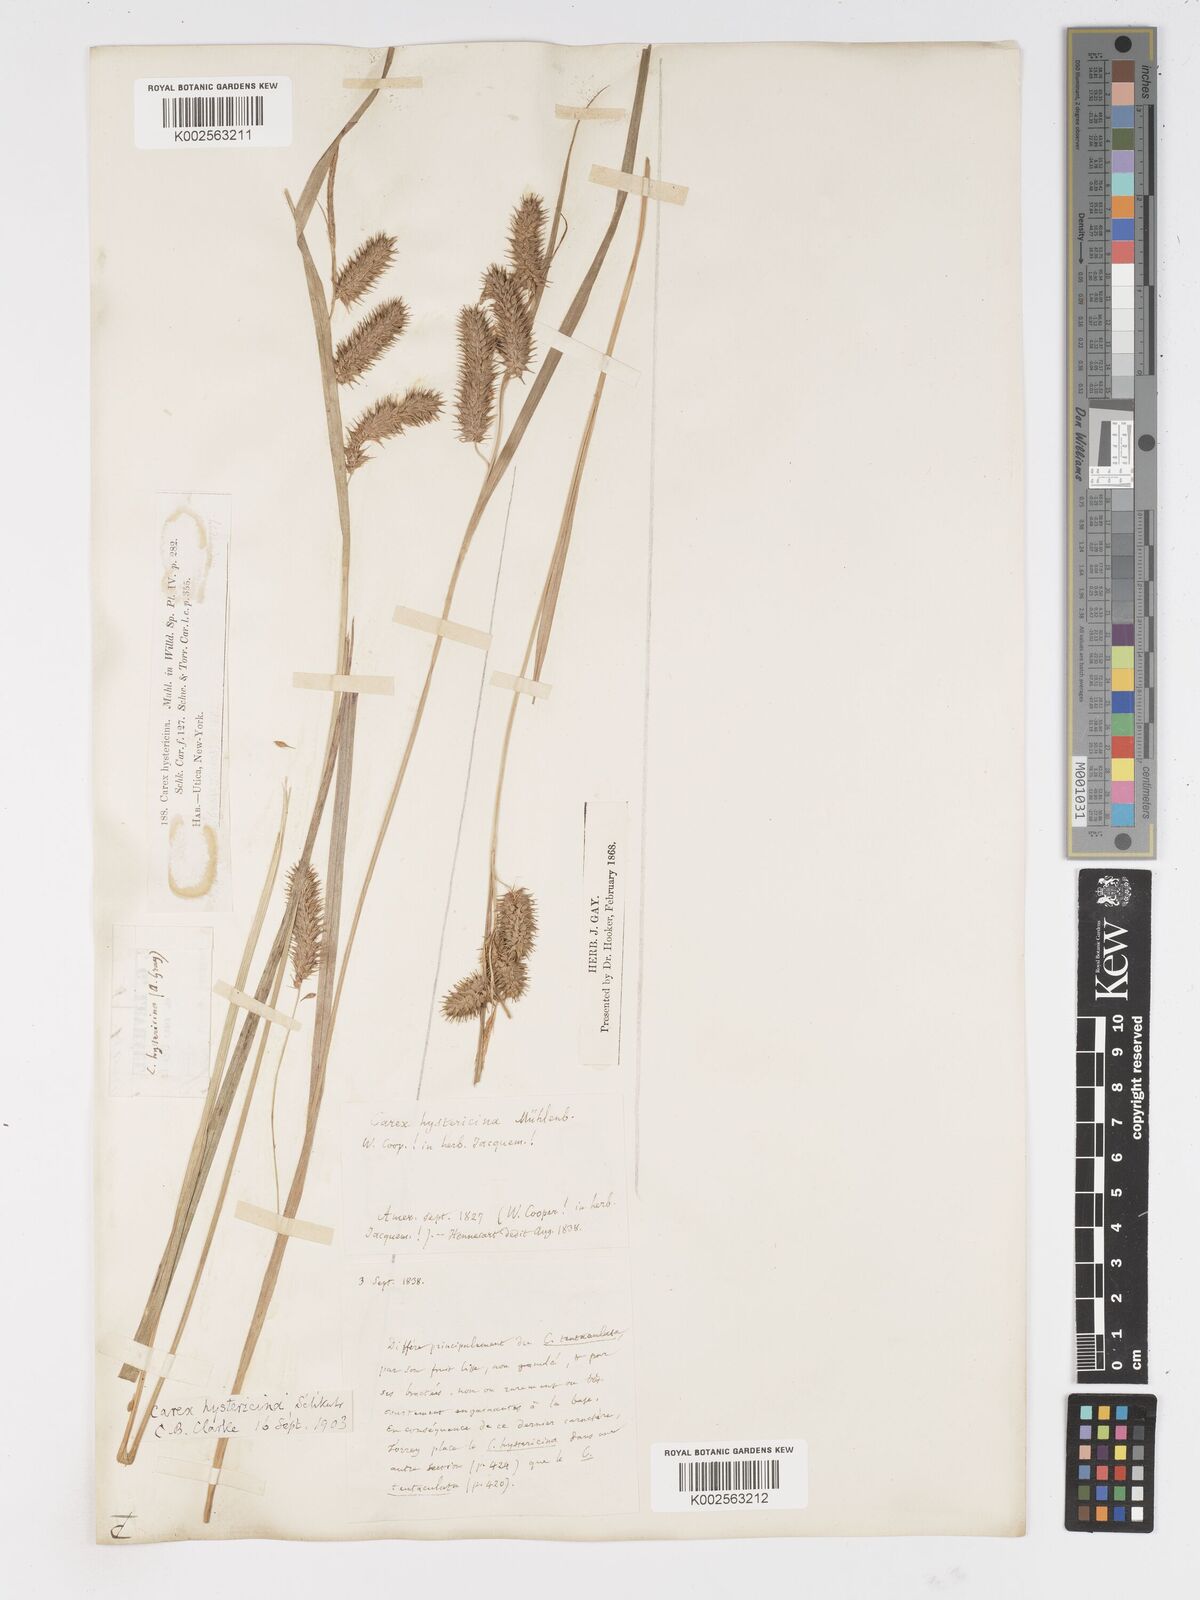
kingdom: Plantae
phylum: Tracheophyta
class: Liliopsida
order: Poales
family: Cyperaceae
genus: Carex
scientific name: Carex hystericina
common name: Bottlebrush sedge
